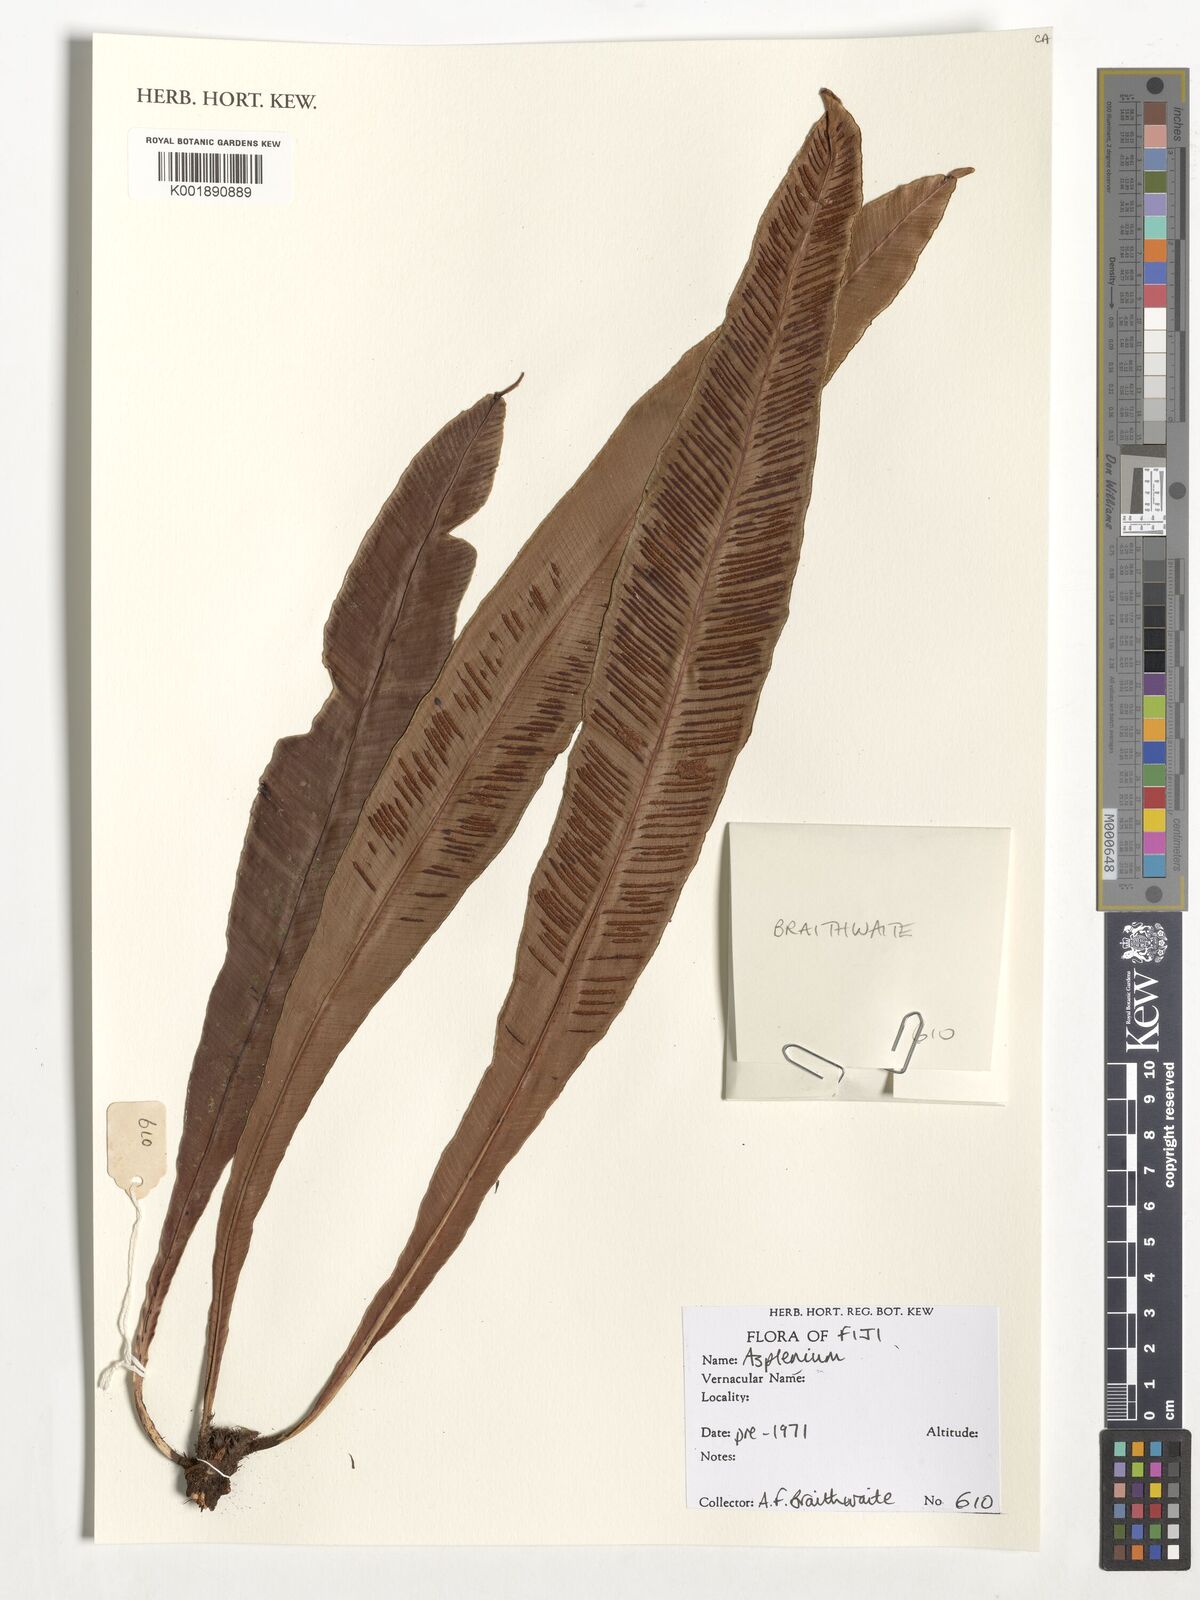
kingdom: Plantae
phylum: Tracheophyta
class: Polypodiopsida
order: Polypodiales
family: Aspleniaceae
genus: Asplenium
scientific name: Asplenium
